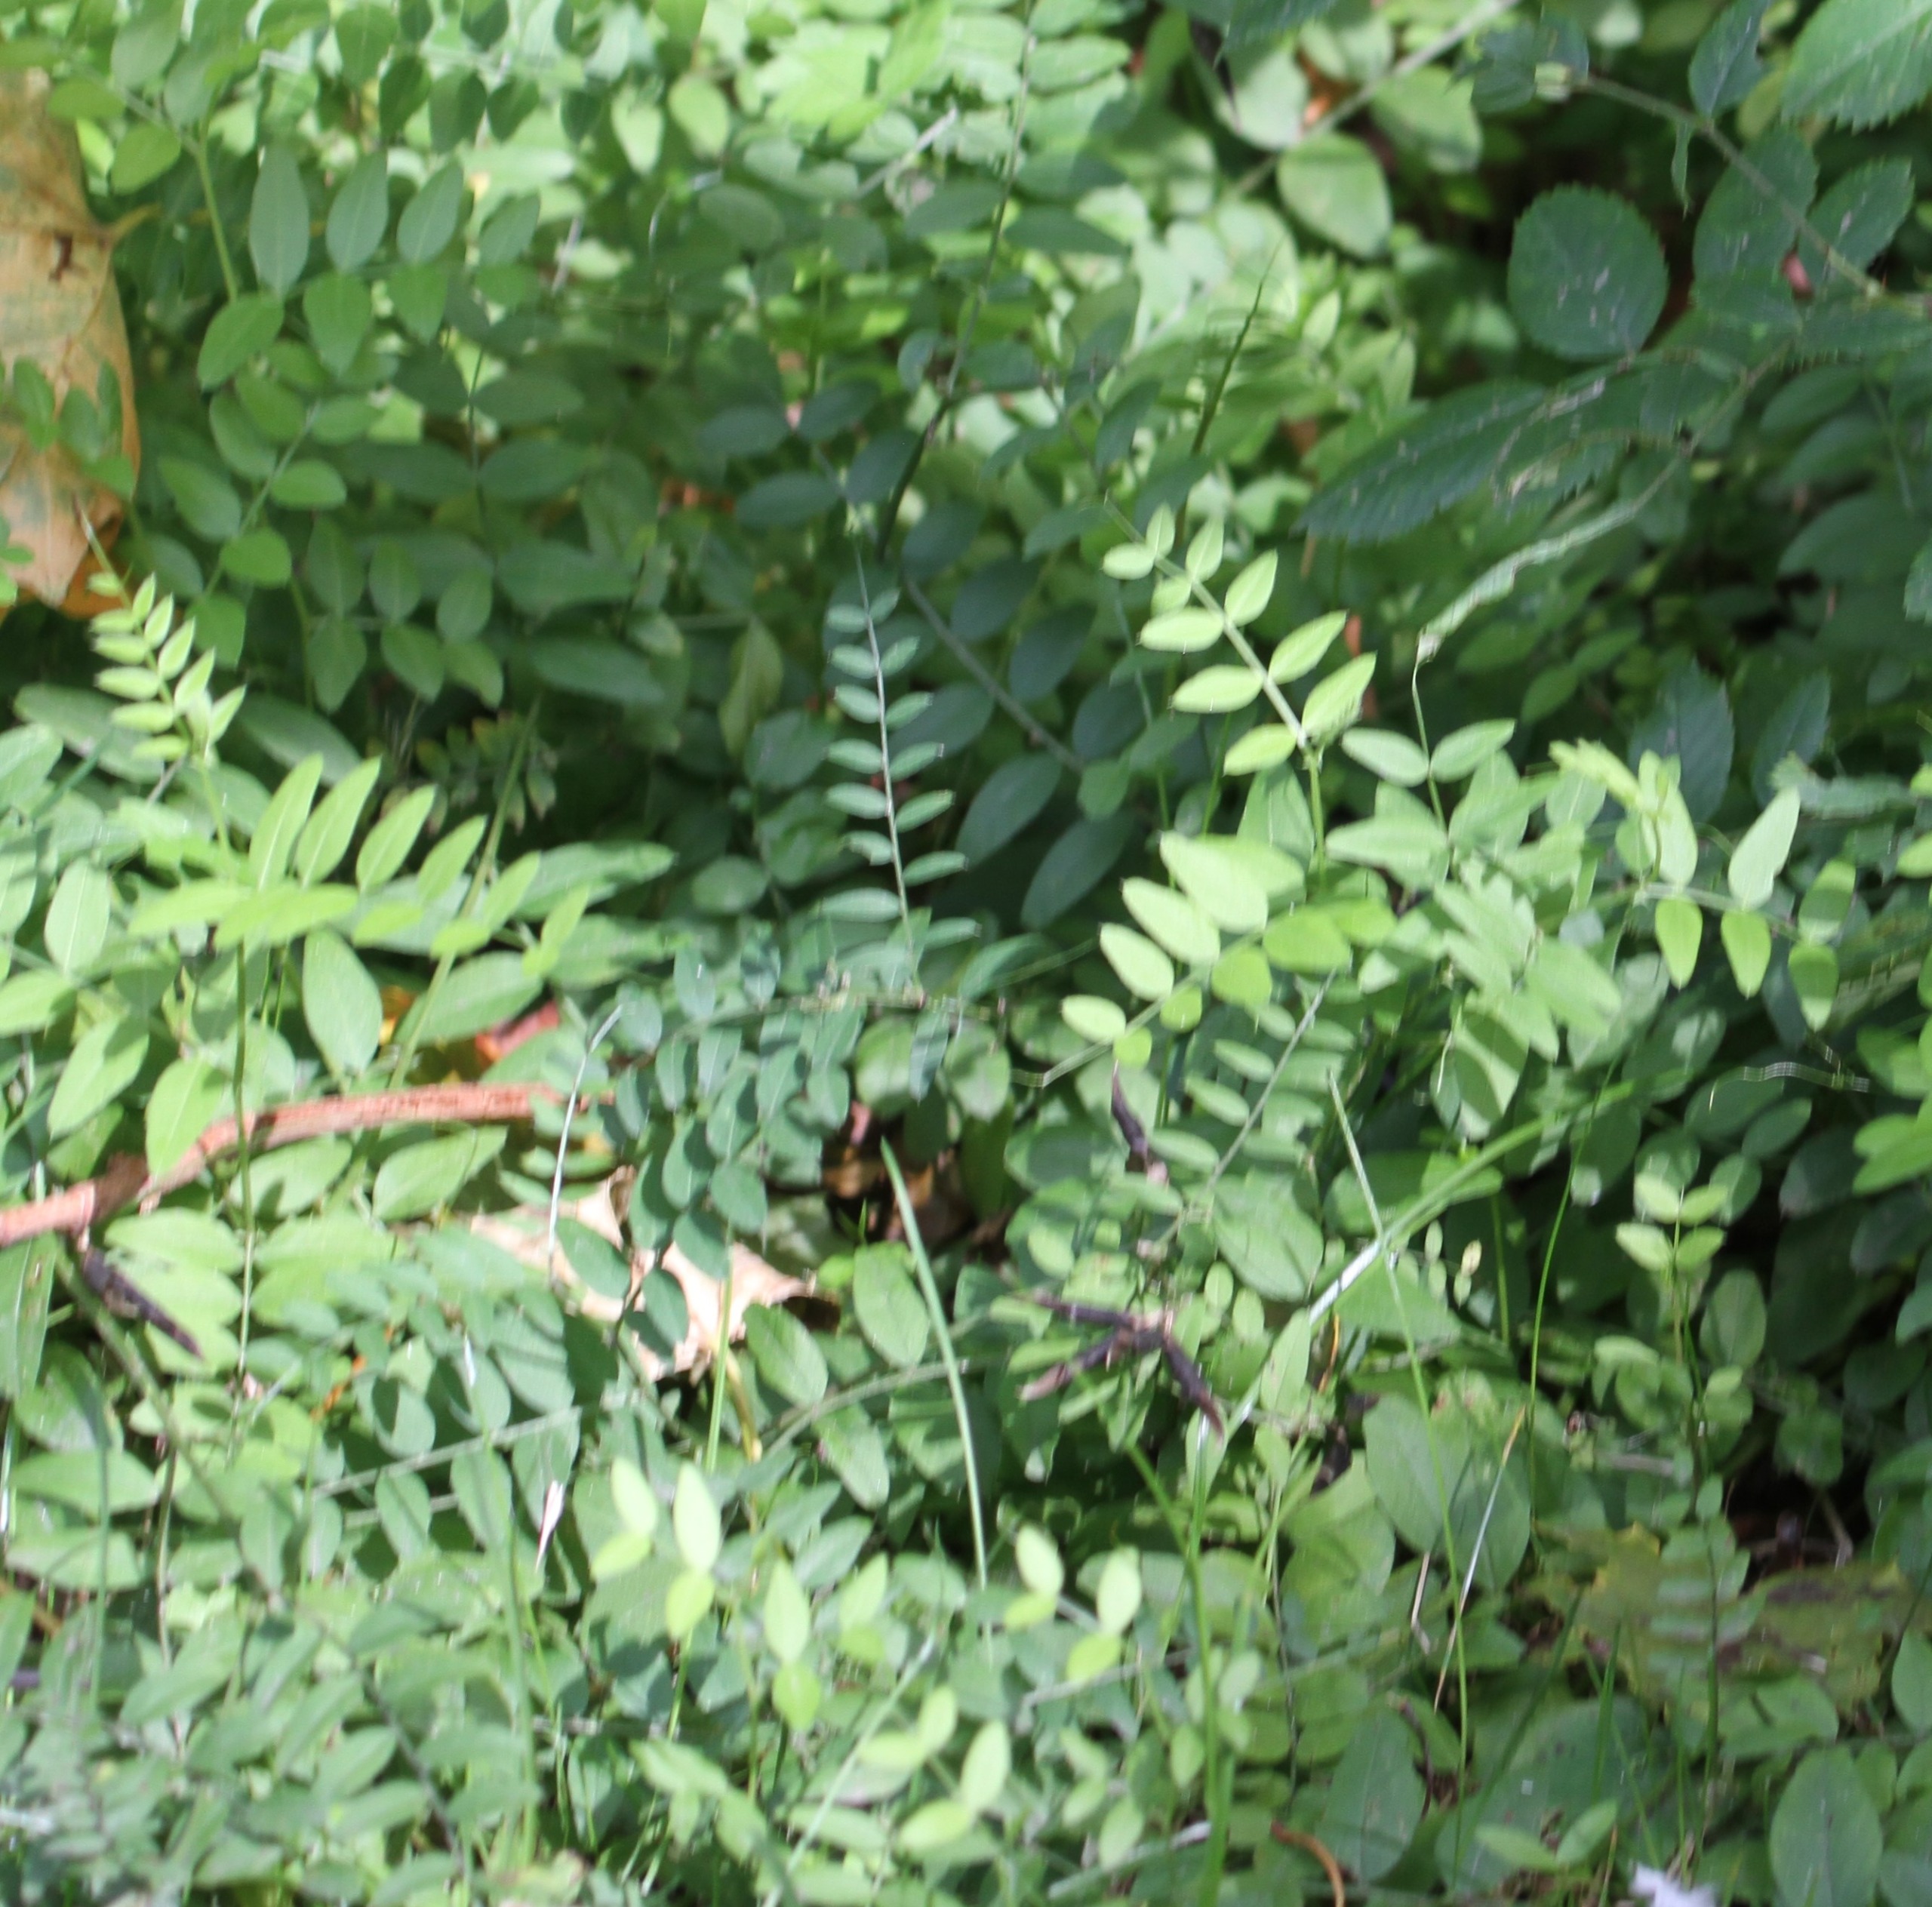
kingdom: Plantae
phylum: Tracheophyta
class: Magnoliopsida
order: Fabales
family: Fabaceae
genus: Vicia
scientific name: Vicia sepium
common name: Gærde-vikke
